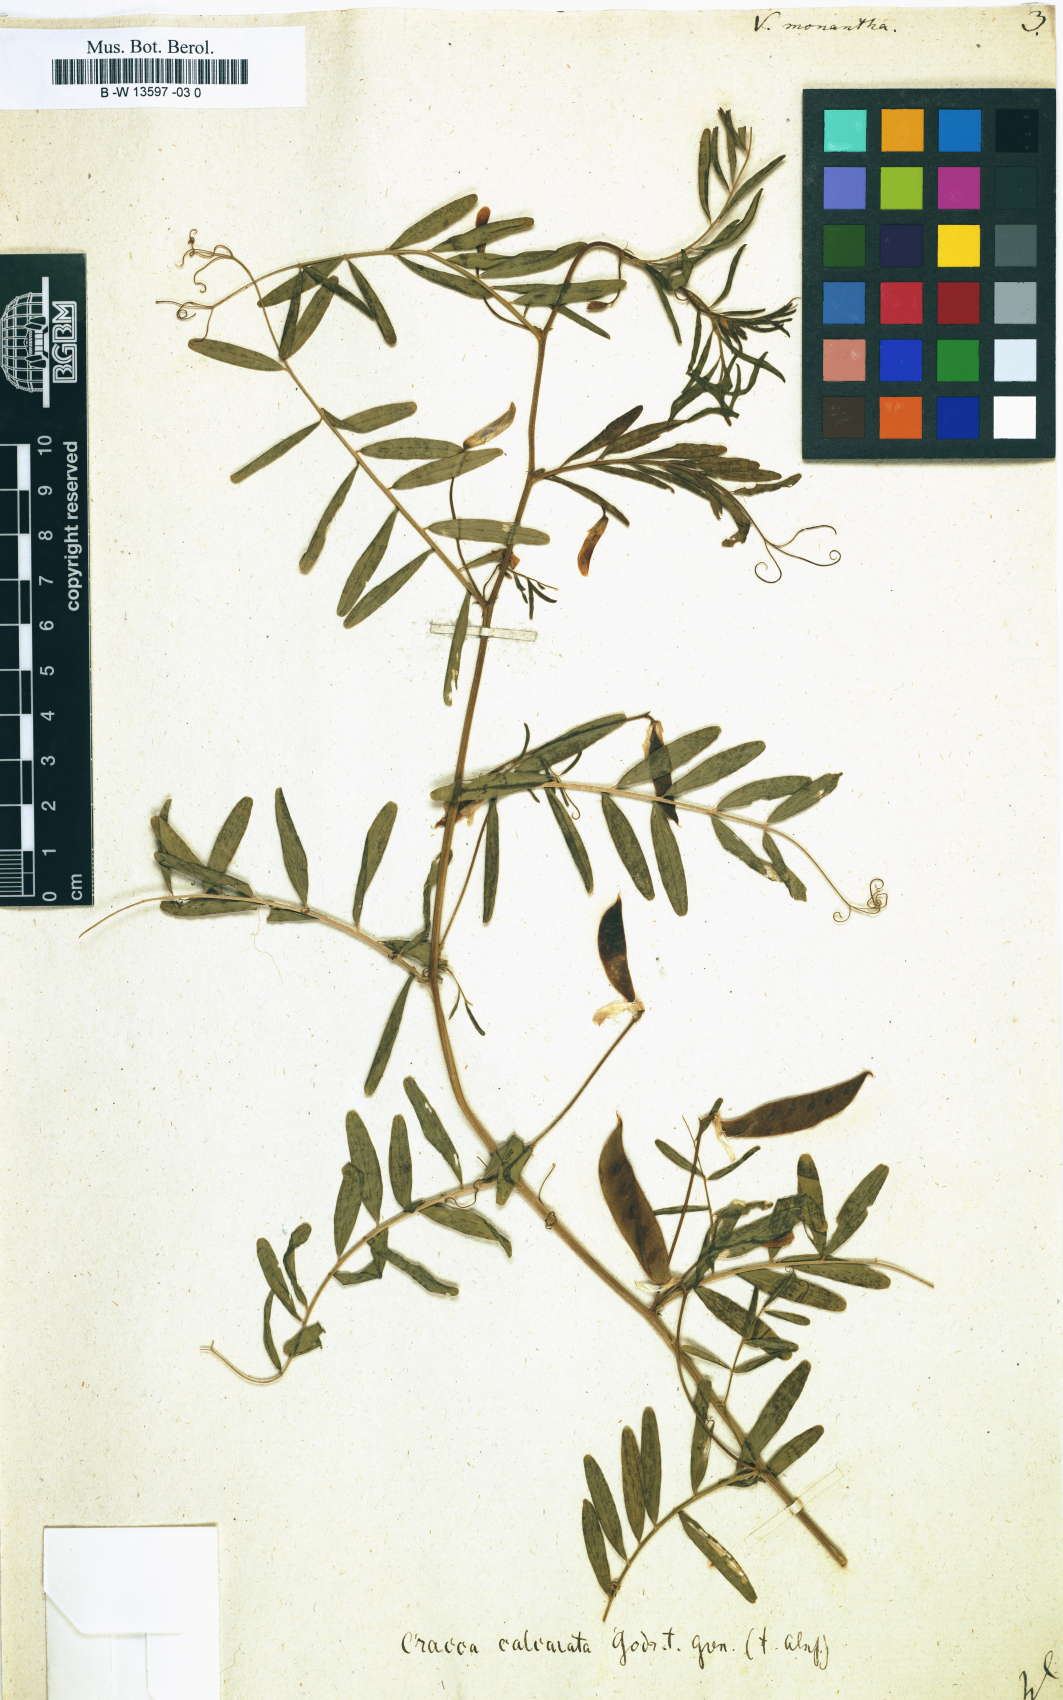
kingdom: Plantae
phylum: Tracheophyta
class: Magnoliopsida
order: Fabales
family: Fabaceae
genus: Vicia
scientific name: Vicia monantha
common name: Barn vetch
